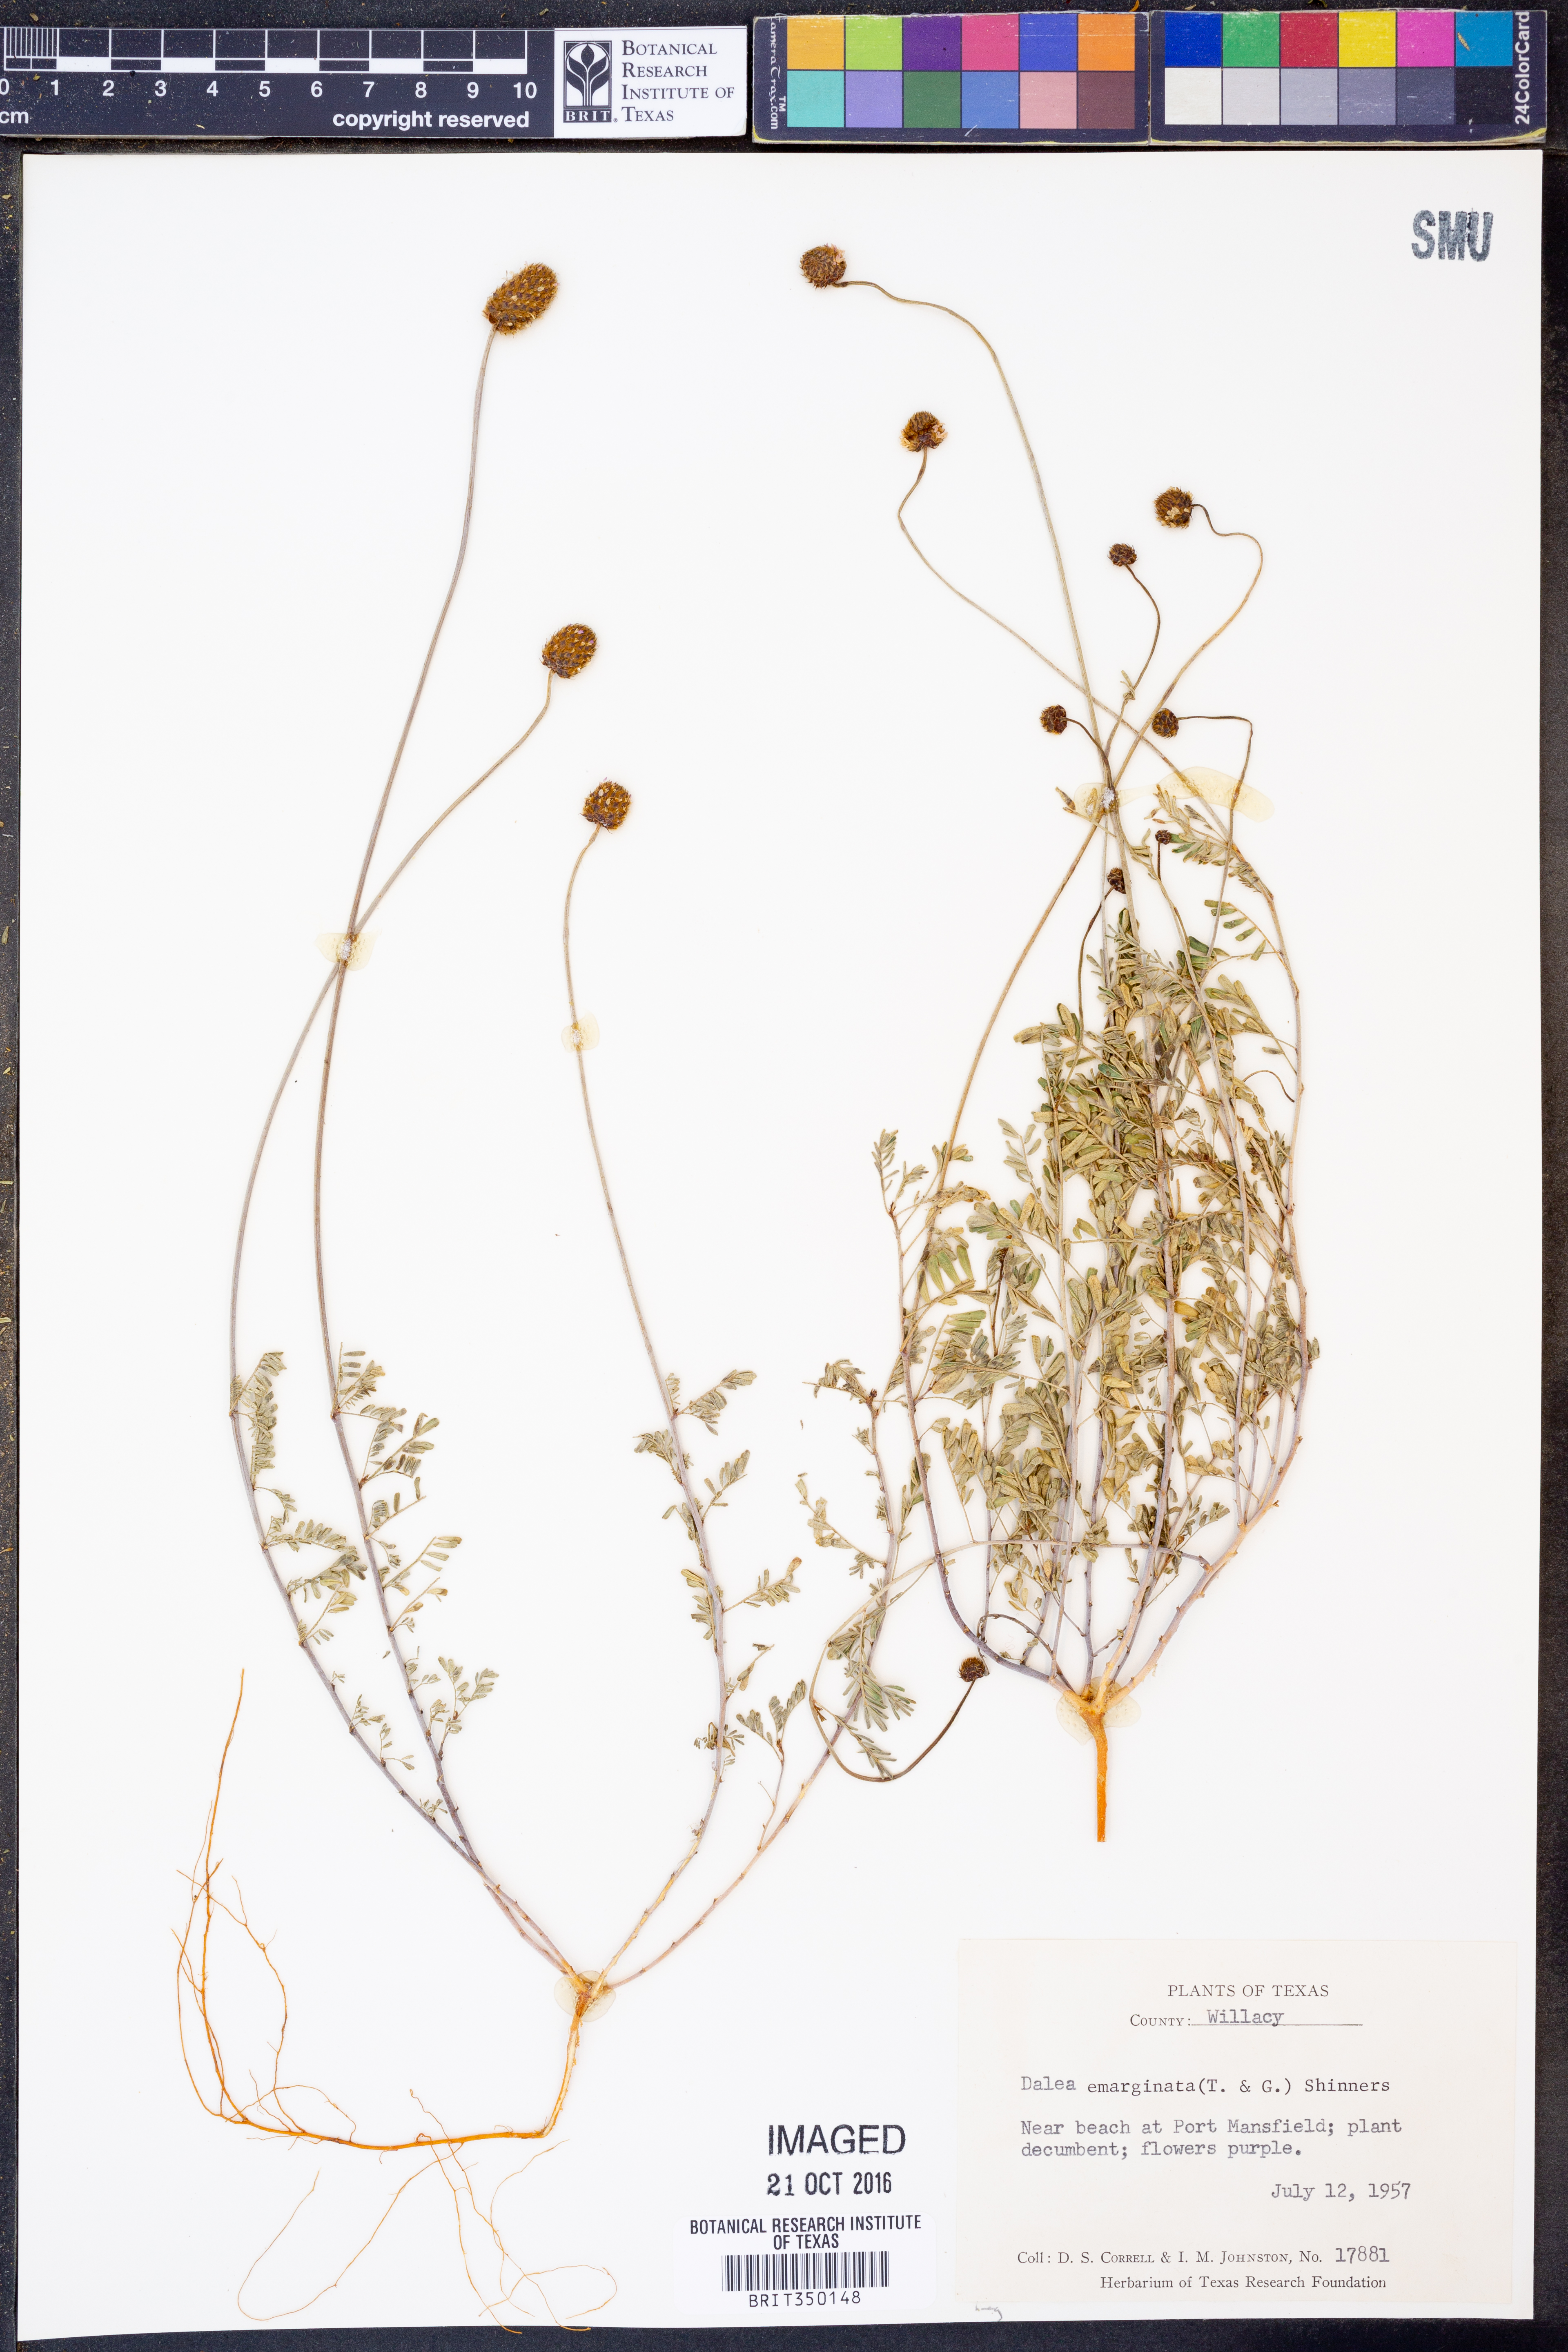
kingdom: Plantae
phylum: Tracheophyta
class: Magnoliopsida
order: Fabales
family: Fabaceae
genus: Dalea
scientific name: Dalea emarginata
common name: Wedgeleaf prairie clover
